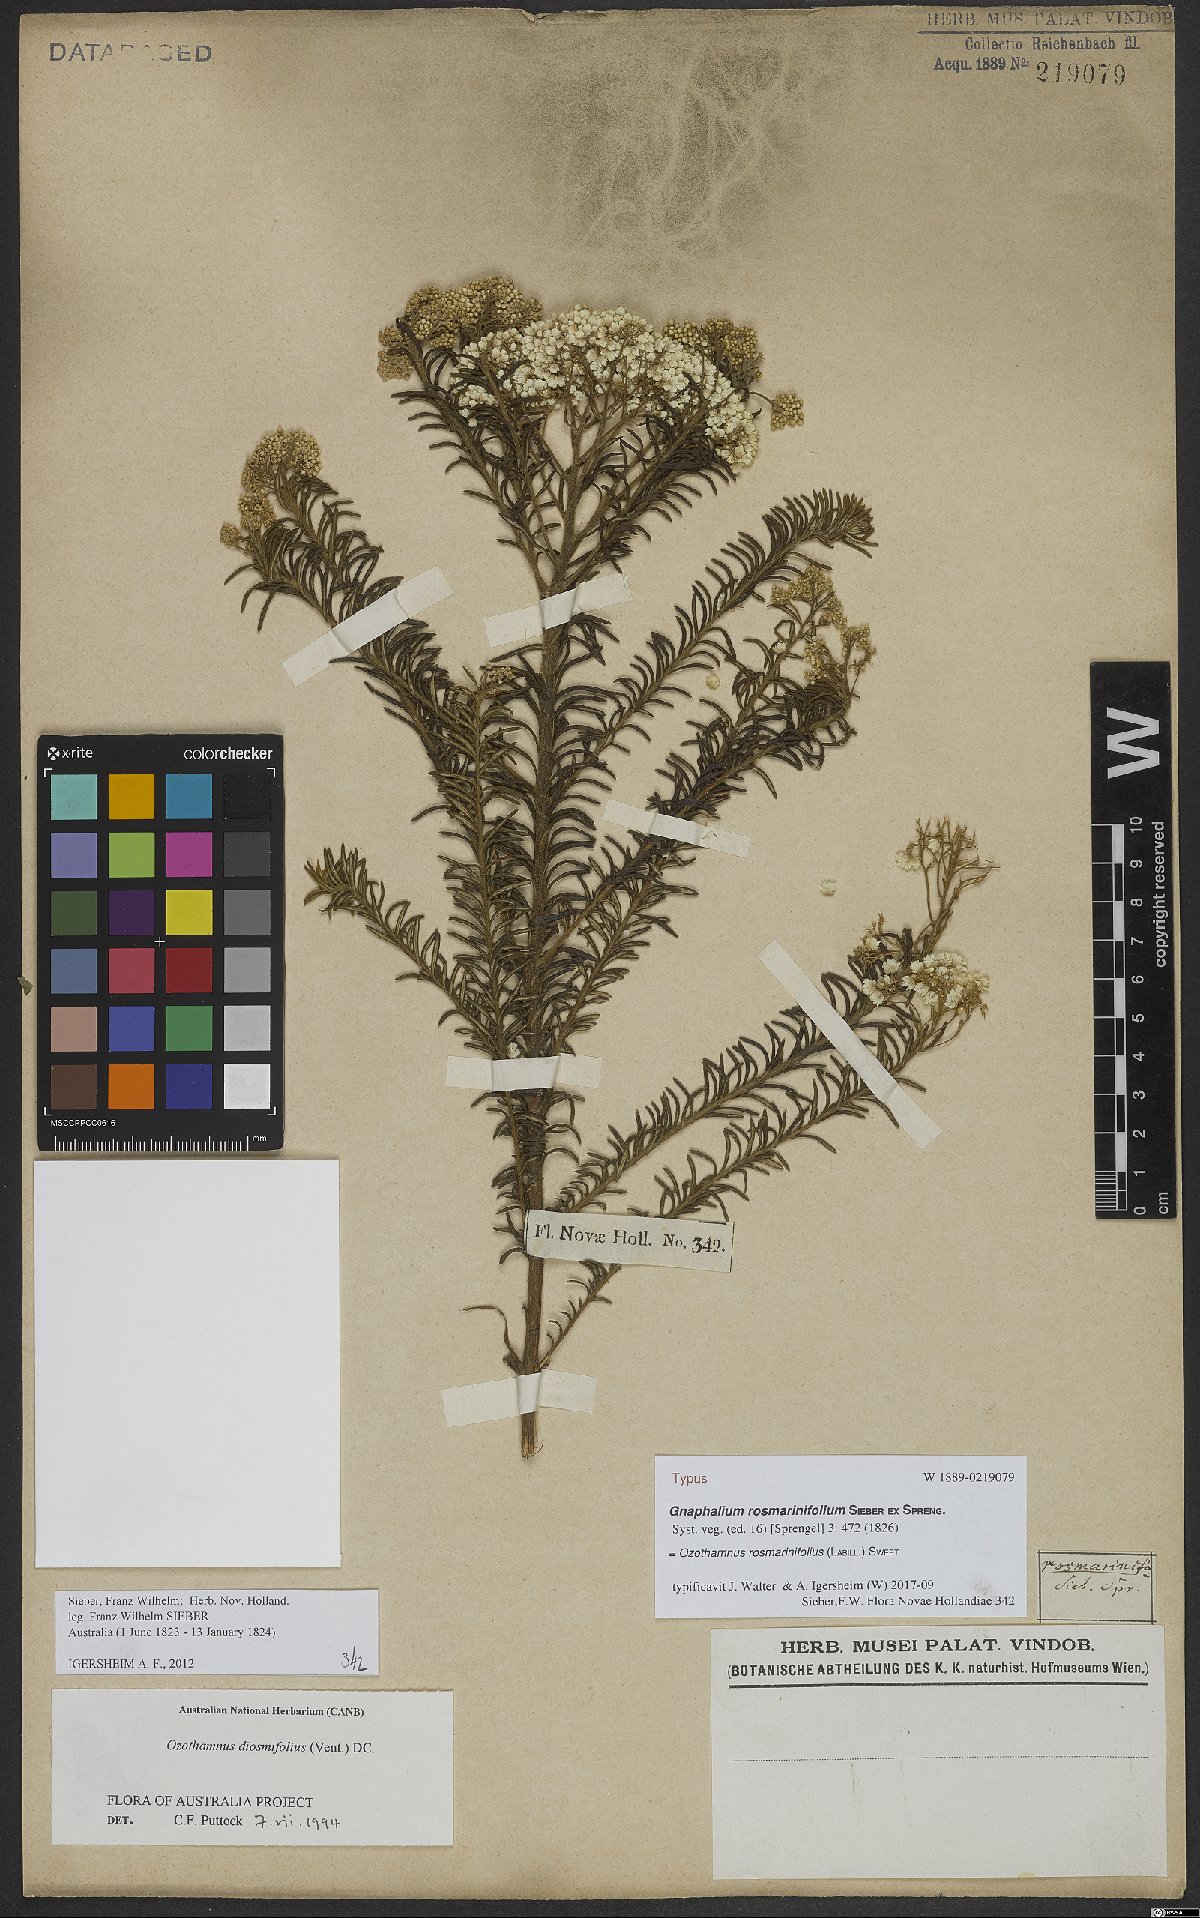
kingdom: Plantae
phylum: Tracheophyta
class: Magnoliopsida
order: Asterales
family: Asteraceae
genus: Ozothamnus
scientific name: Ozothamnus rosmarinifolius
